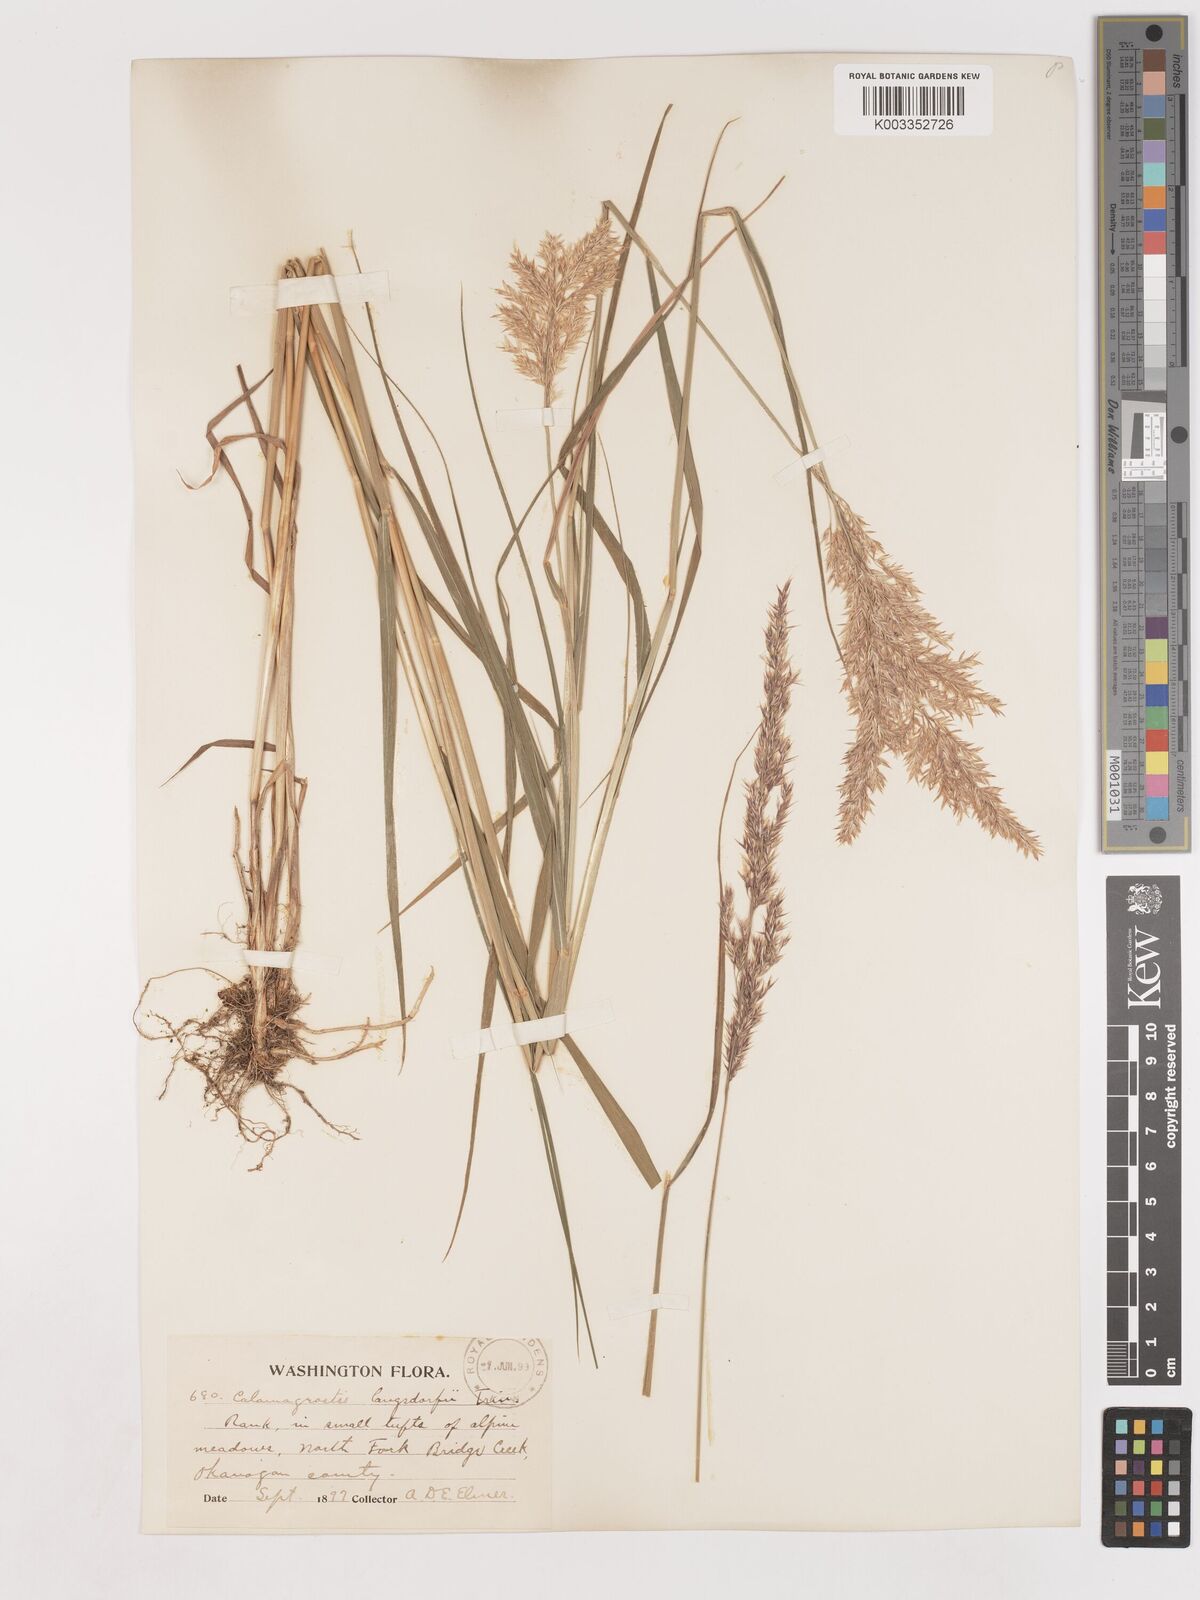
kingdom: Plantae
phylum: Tracheophyta
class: Liliopsida
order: Poales
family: Poaceae
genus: Calamagrostis
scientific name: Calamagrostis canadensis
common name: Canada bluejoint
